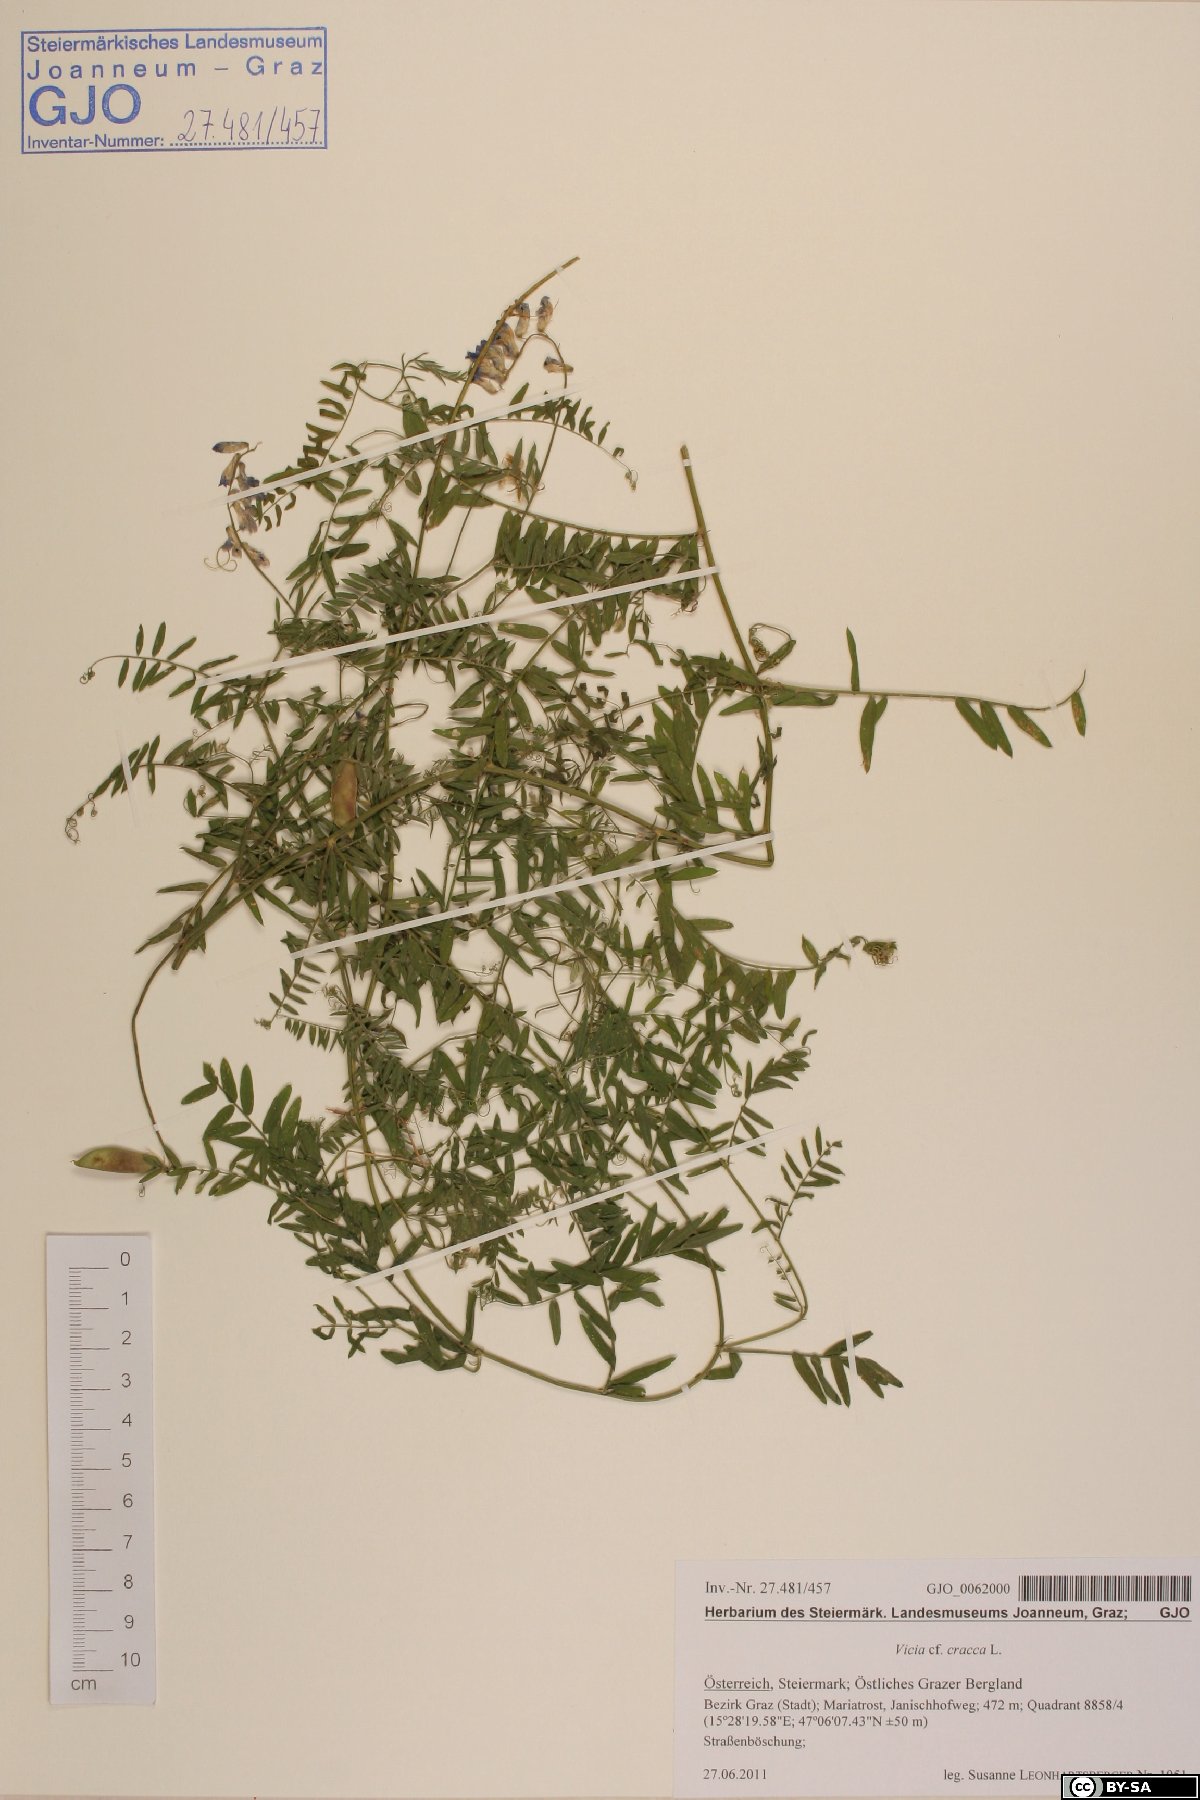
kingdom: Plantae
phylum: Tracheophyta
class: Magnoliopsida
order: Fabales
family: Fabaceae
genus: Vicia
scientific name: Vicia cracca
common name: Bird vetch
